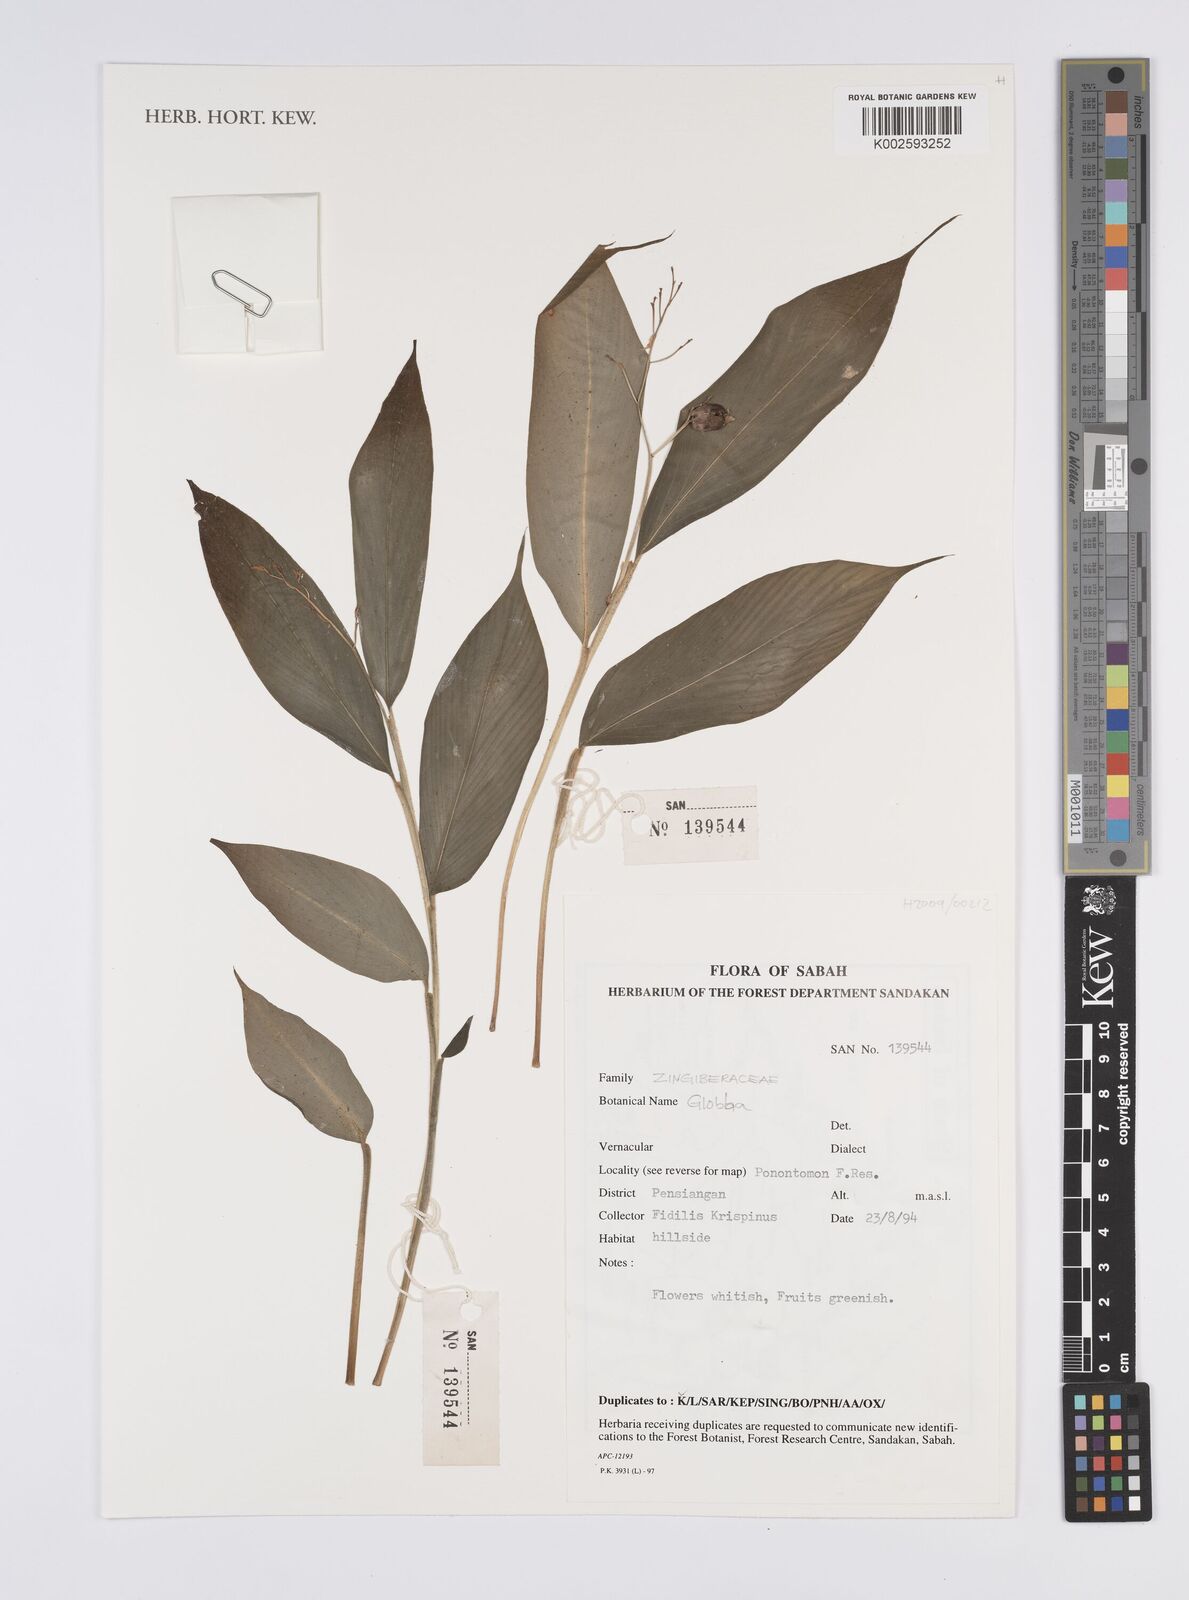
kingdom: Plantae
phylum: Tracheophyta
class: Liliopsida
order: Zingiberales
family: Zingiberaceae
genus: Globba
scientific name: Globba
